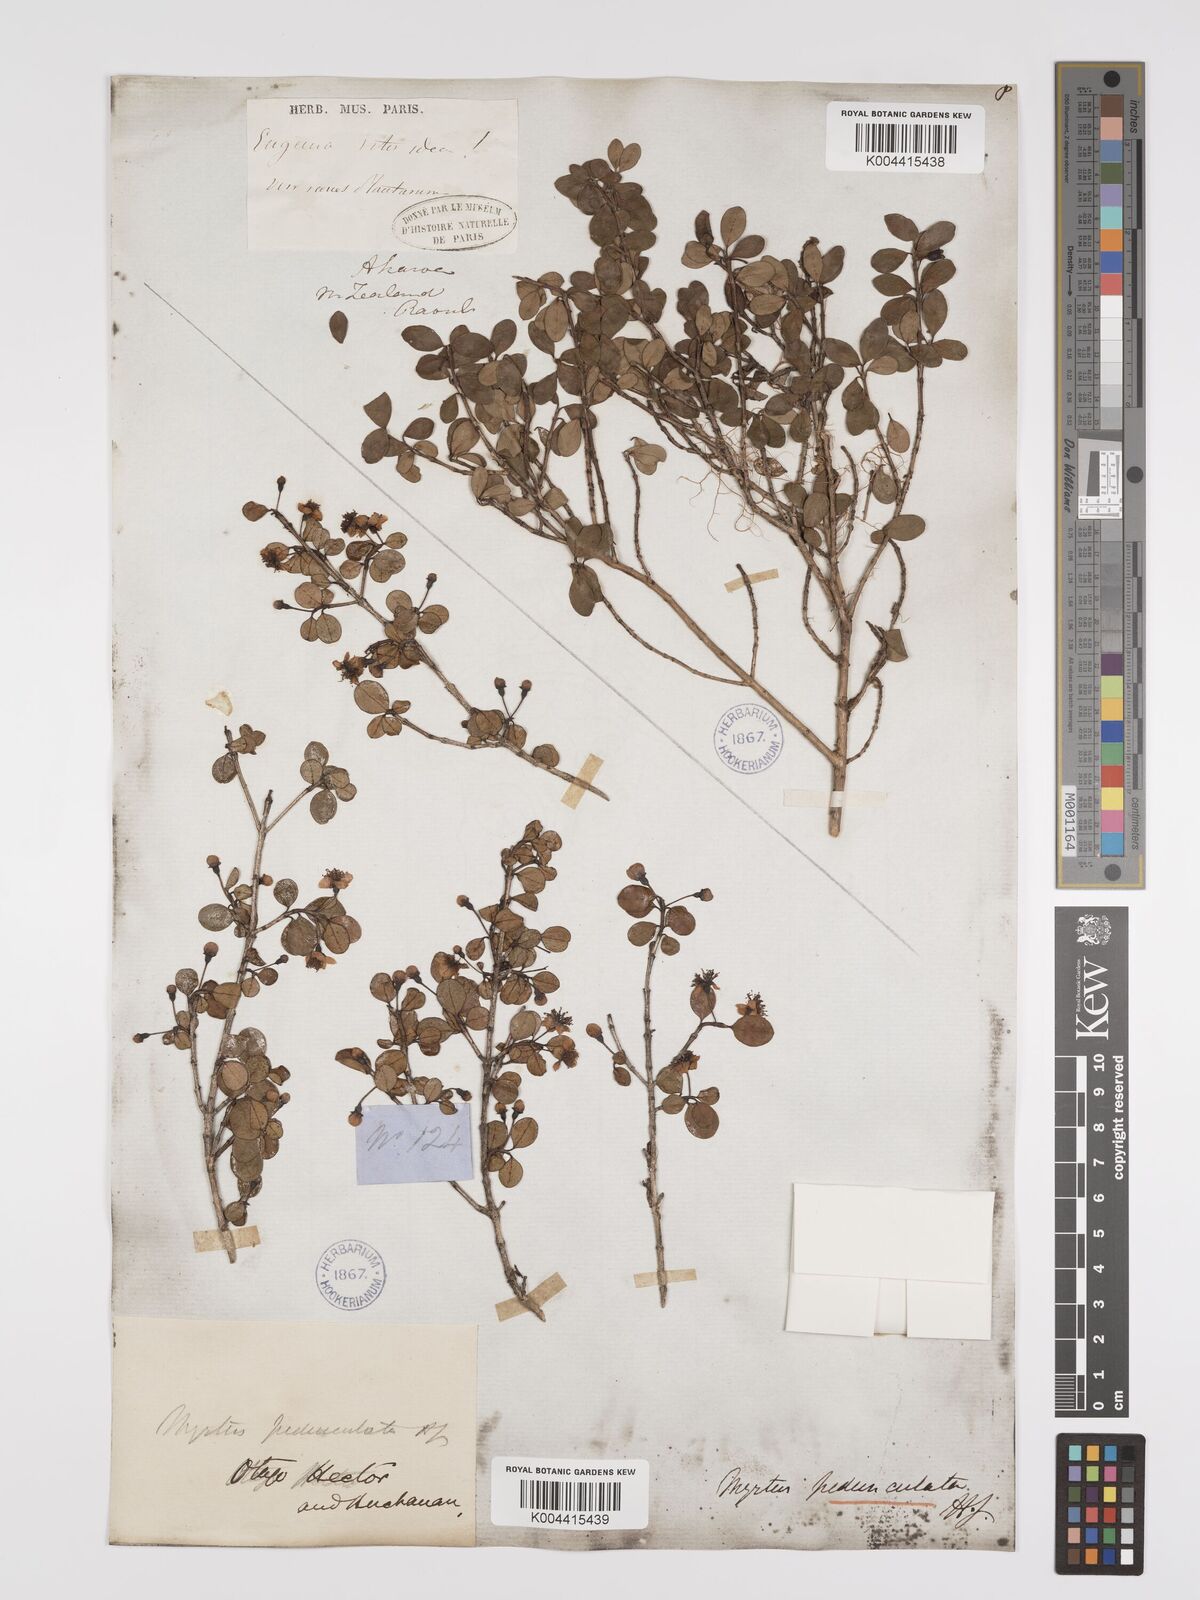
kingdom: Plantae
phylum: Tracheophyta
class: Magnoliopsida
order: Myrtales
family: Myrtaceae
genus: Neomyrtus
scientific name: Neomyrtus pedunculata
